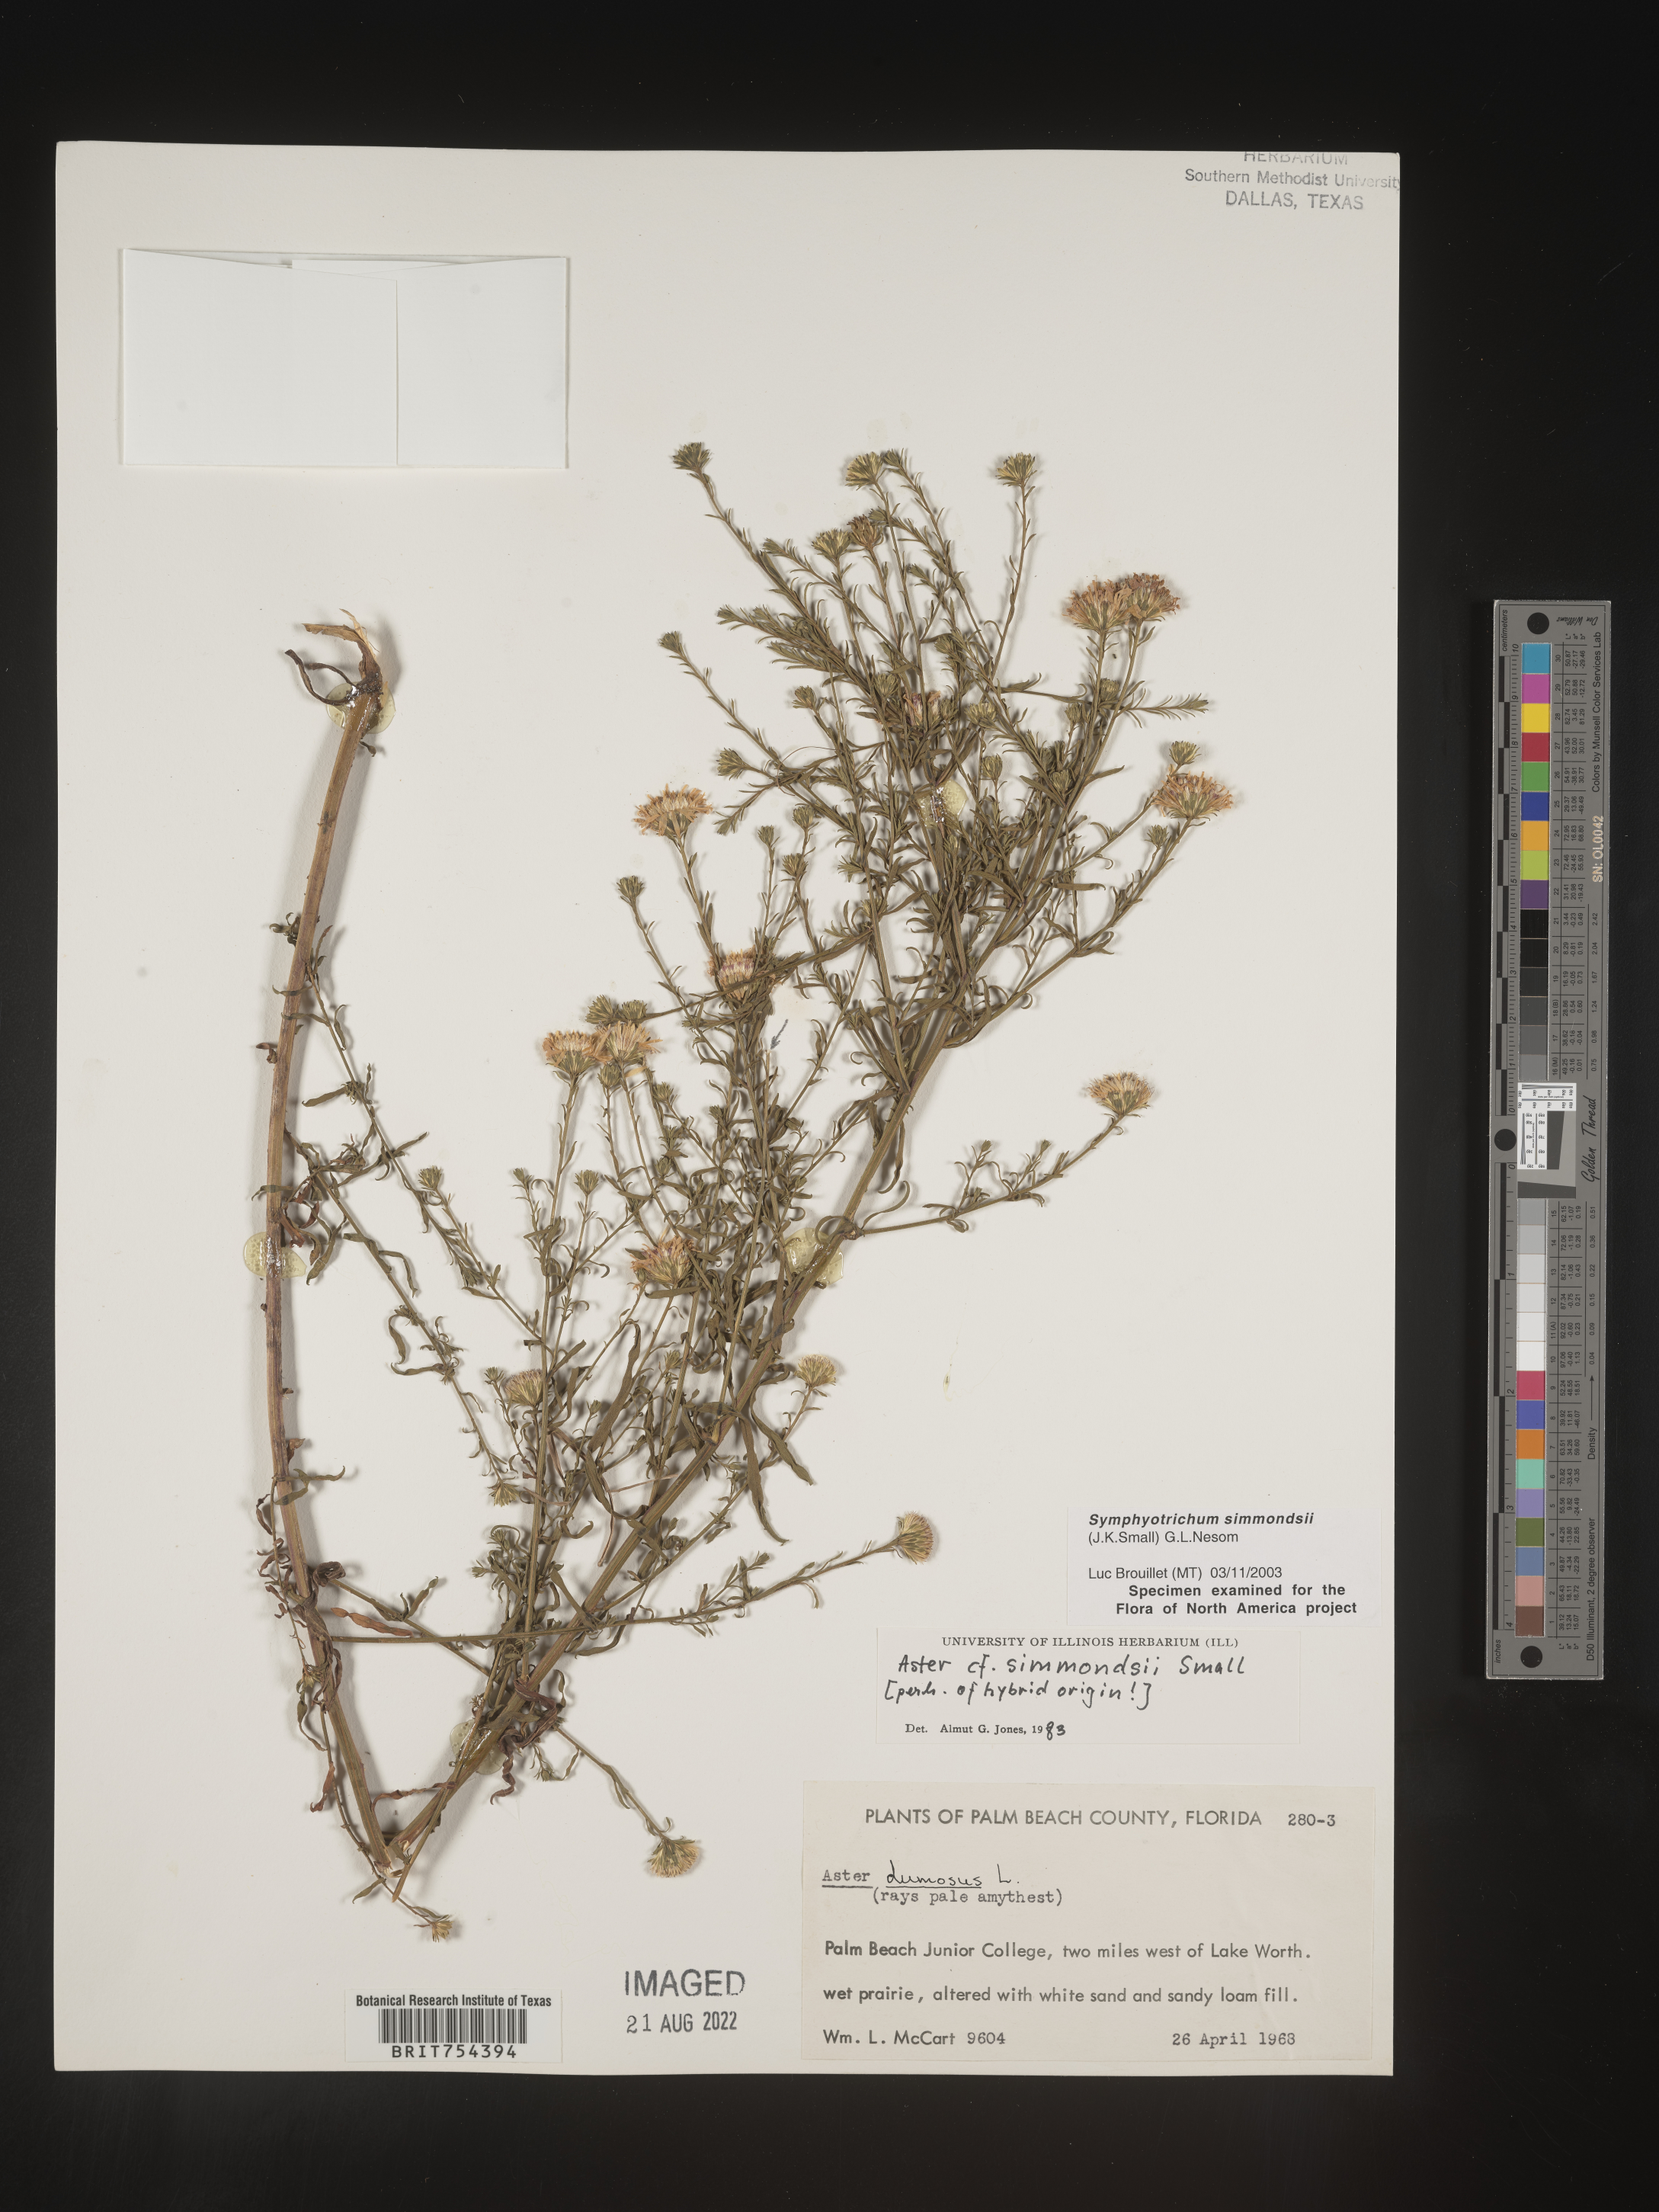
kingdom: Plantae
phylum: Tracheophyta
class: Magnoliopsida
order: Asterales
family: Asteraceae
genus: Symphyotrichum
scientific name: Symphyotrichum simmondsii
